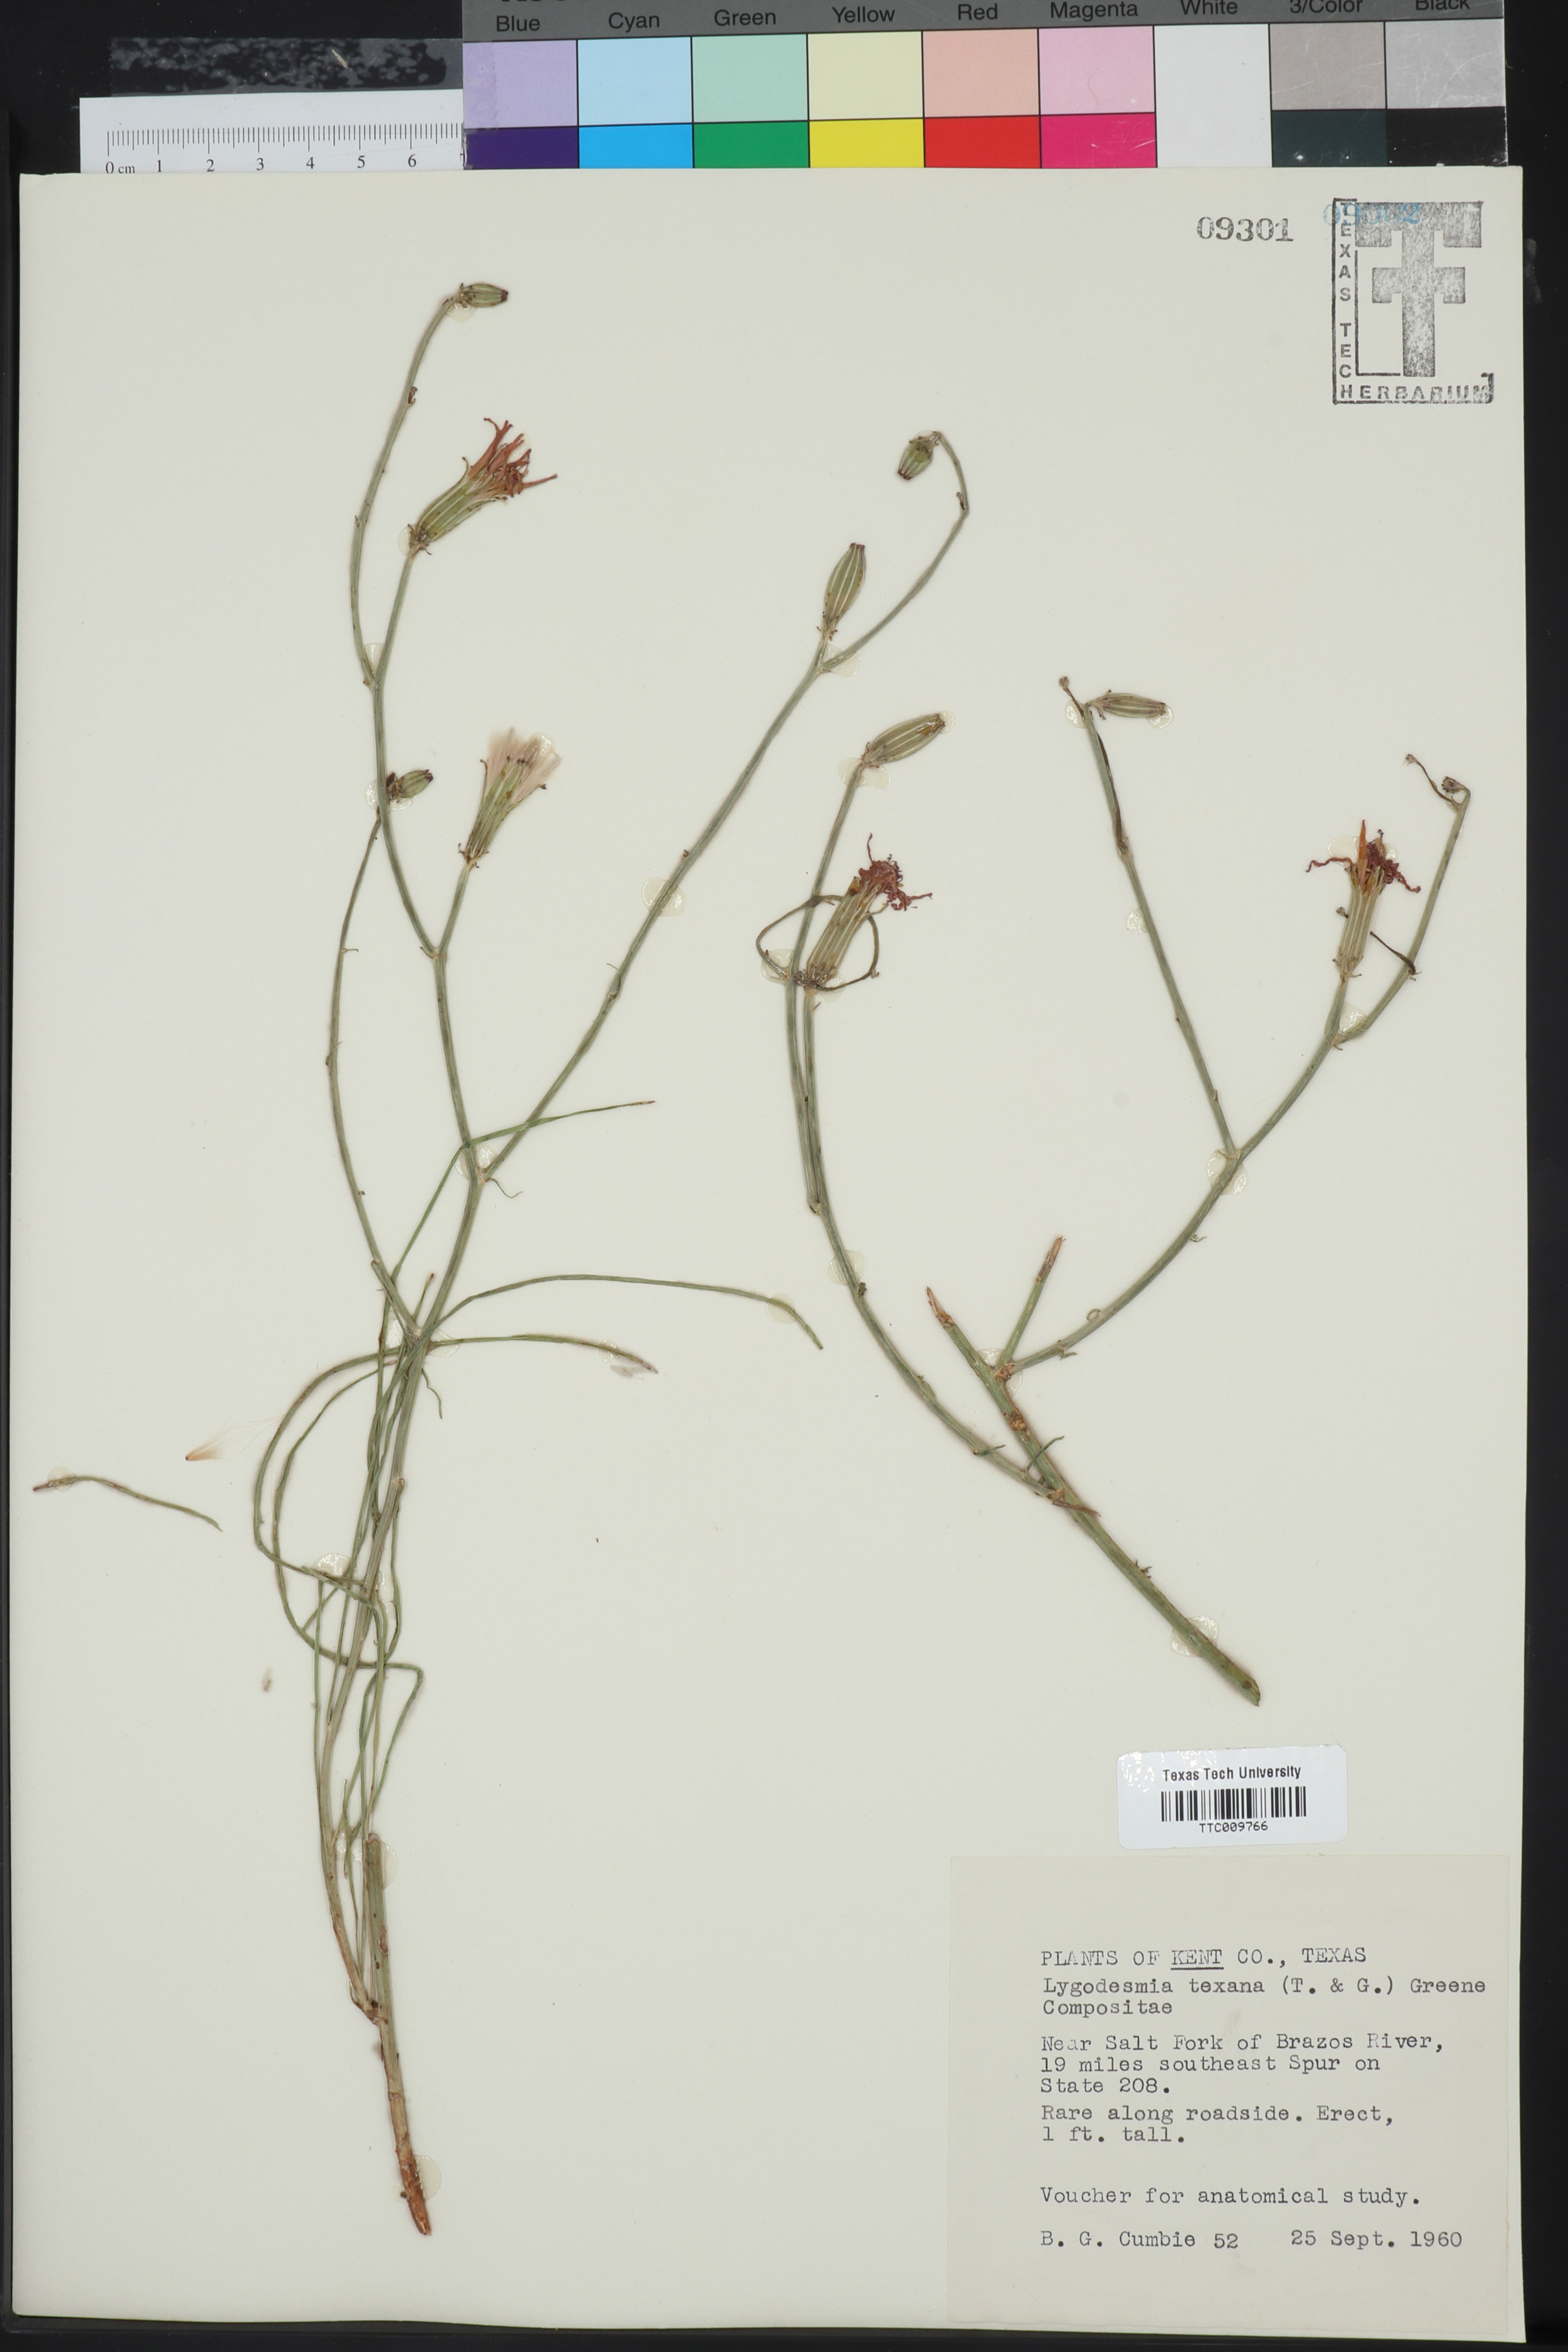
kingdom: Plantae
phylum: Tracheophyta
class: Magnoliopsida
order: Asterales
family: Asteraceae
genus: Lygodesmia
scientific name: Lygodesmia texana
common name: Texas skeleton-plant
